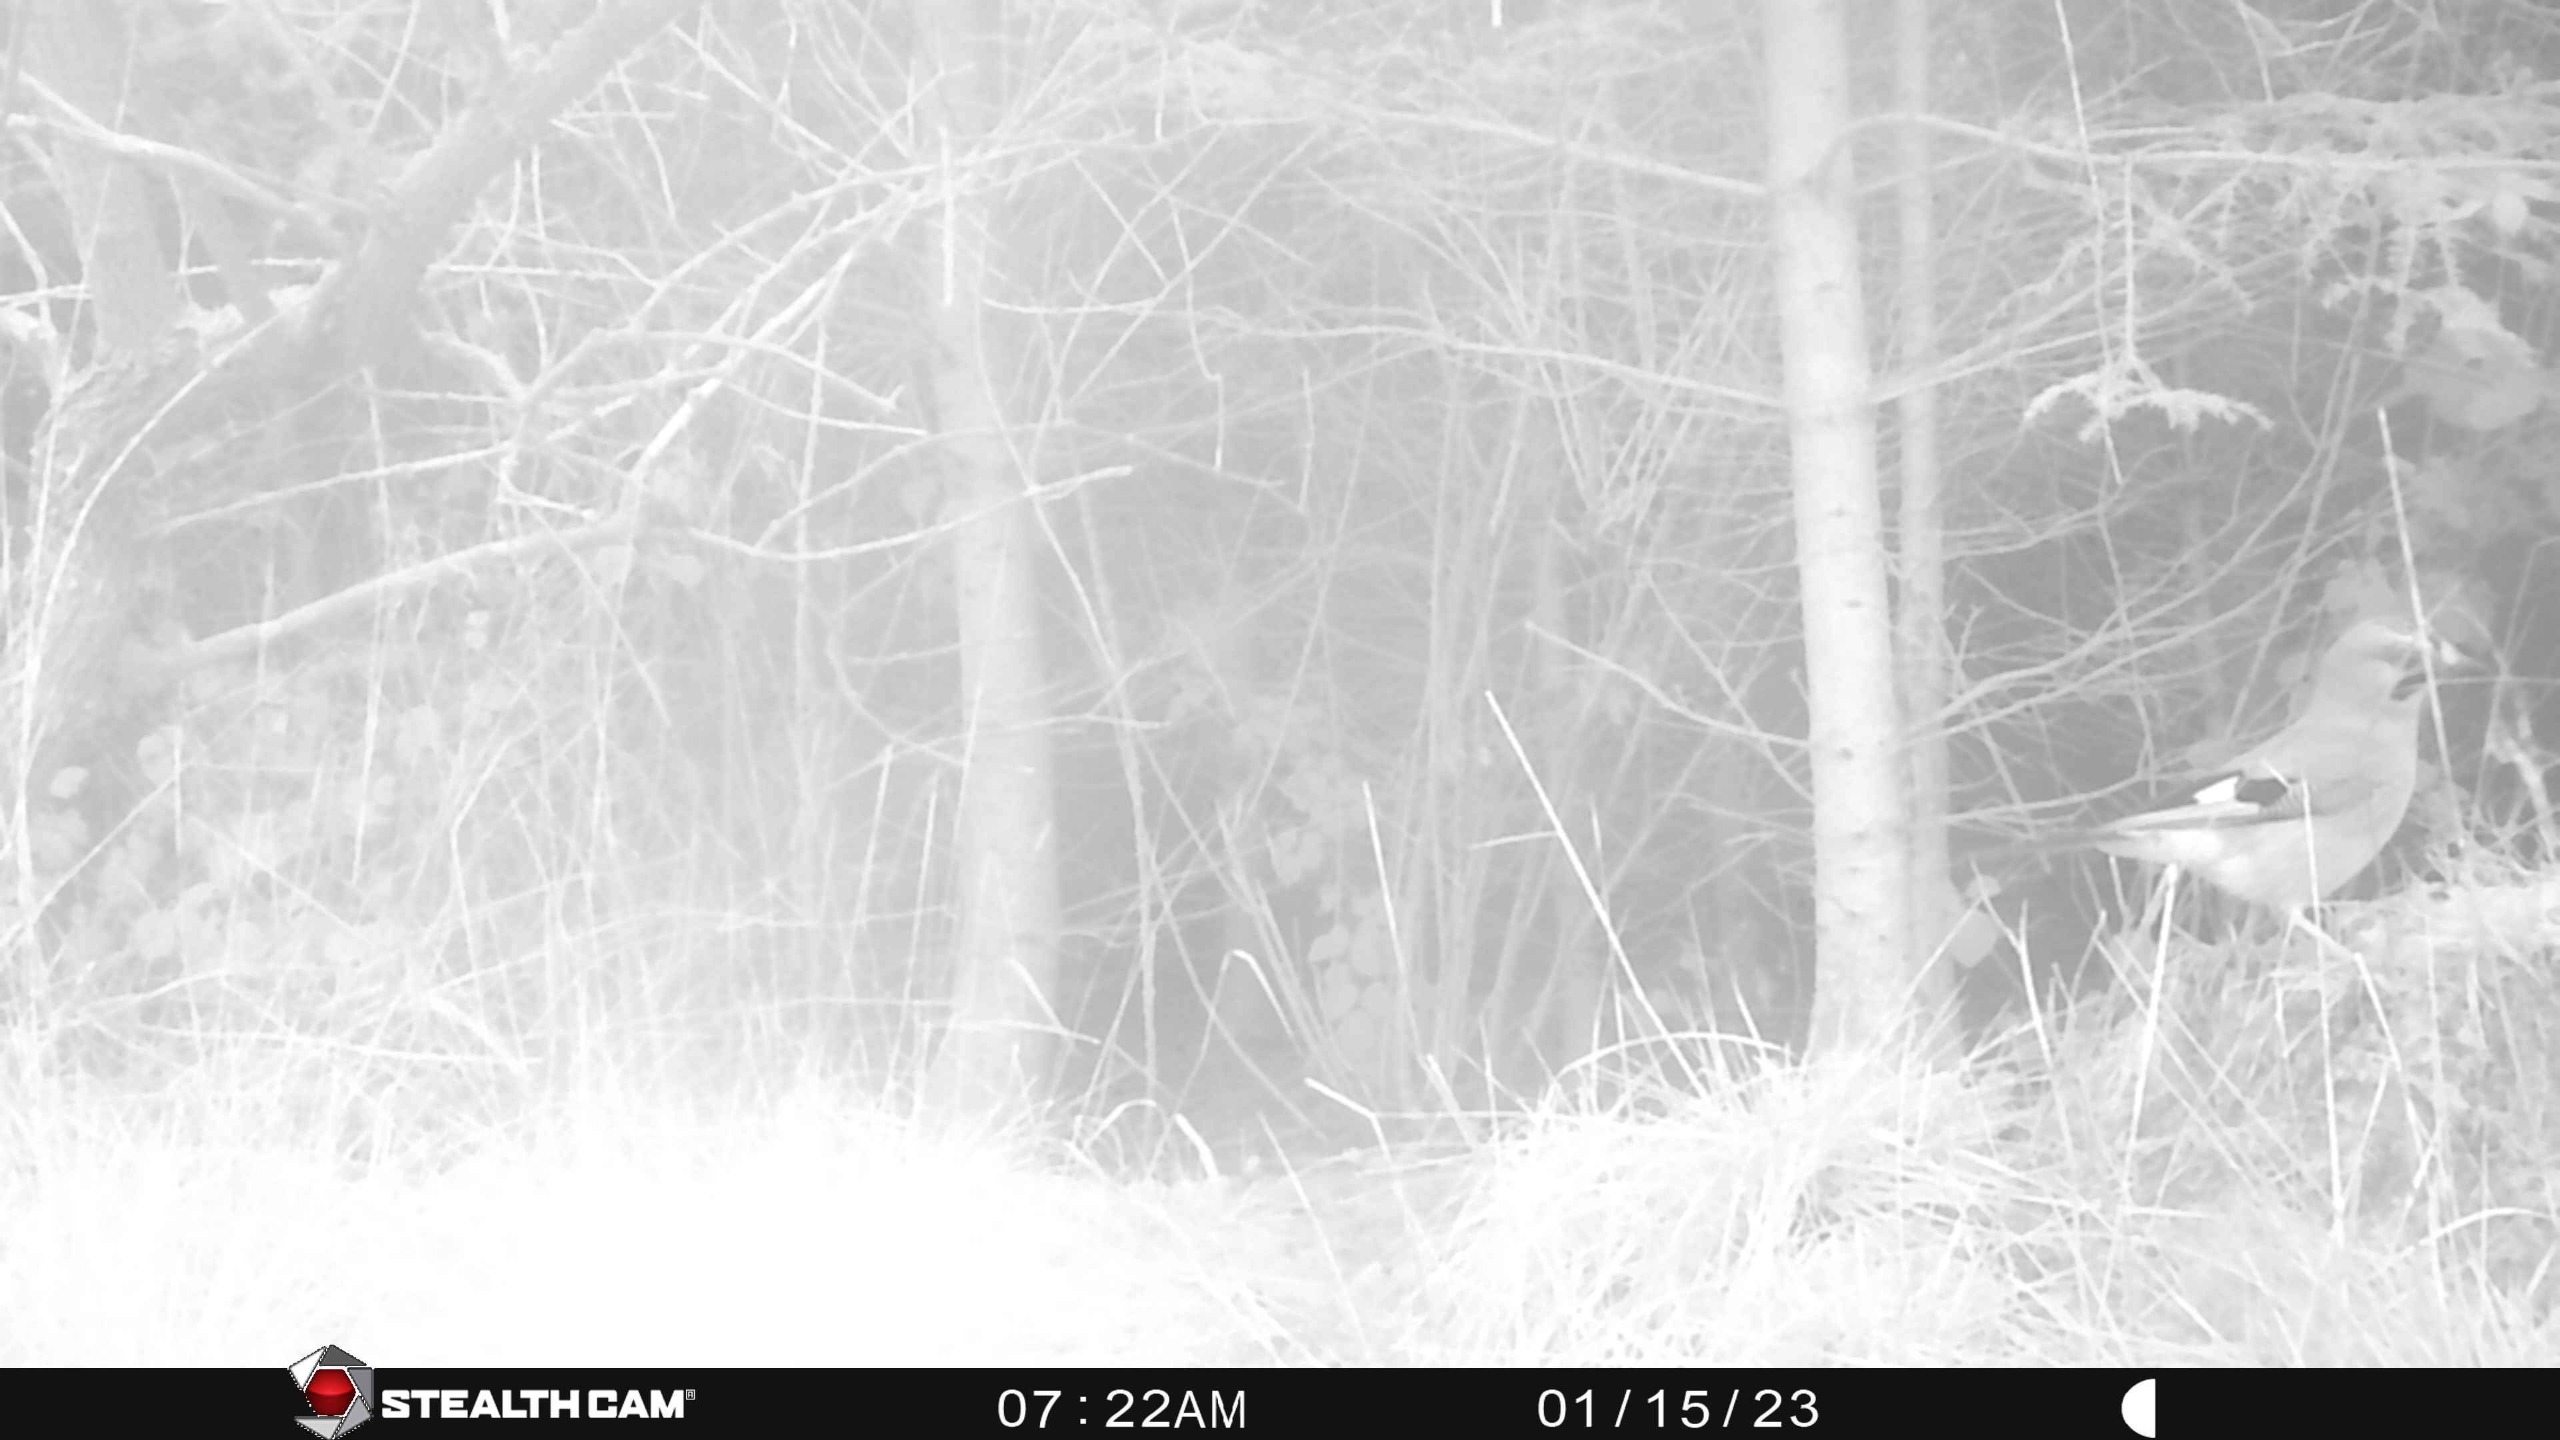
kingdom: Animalia
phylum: Chordata
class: Aves
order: Passeriformes
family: Corvidae
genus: Garrulus
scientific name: Garrulus glandarius
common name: Skovskade
